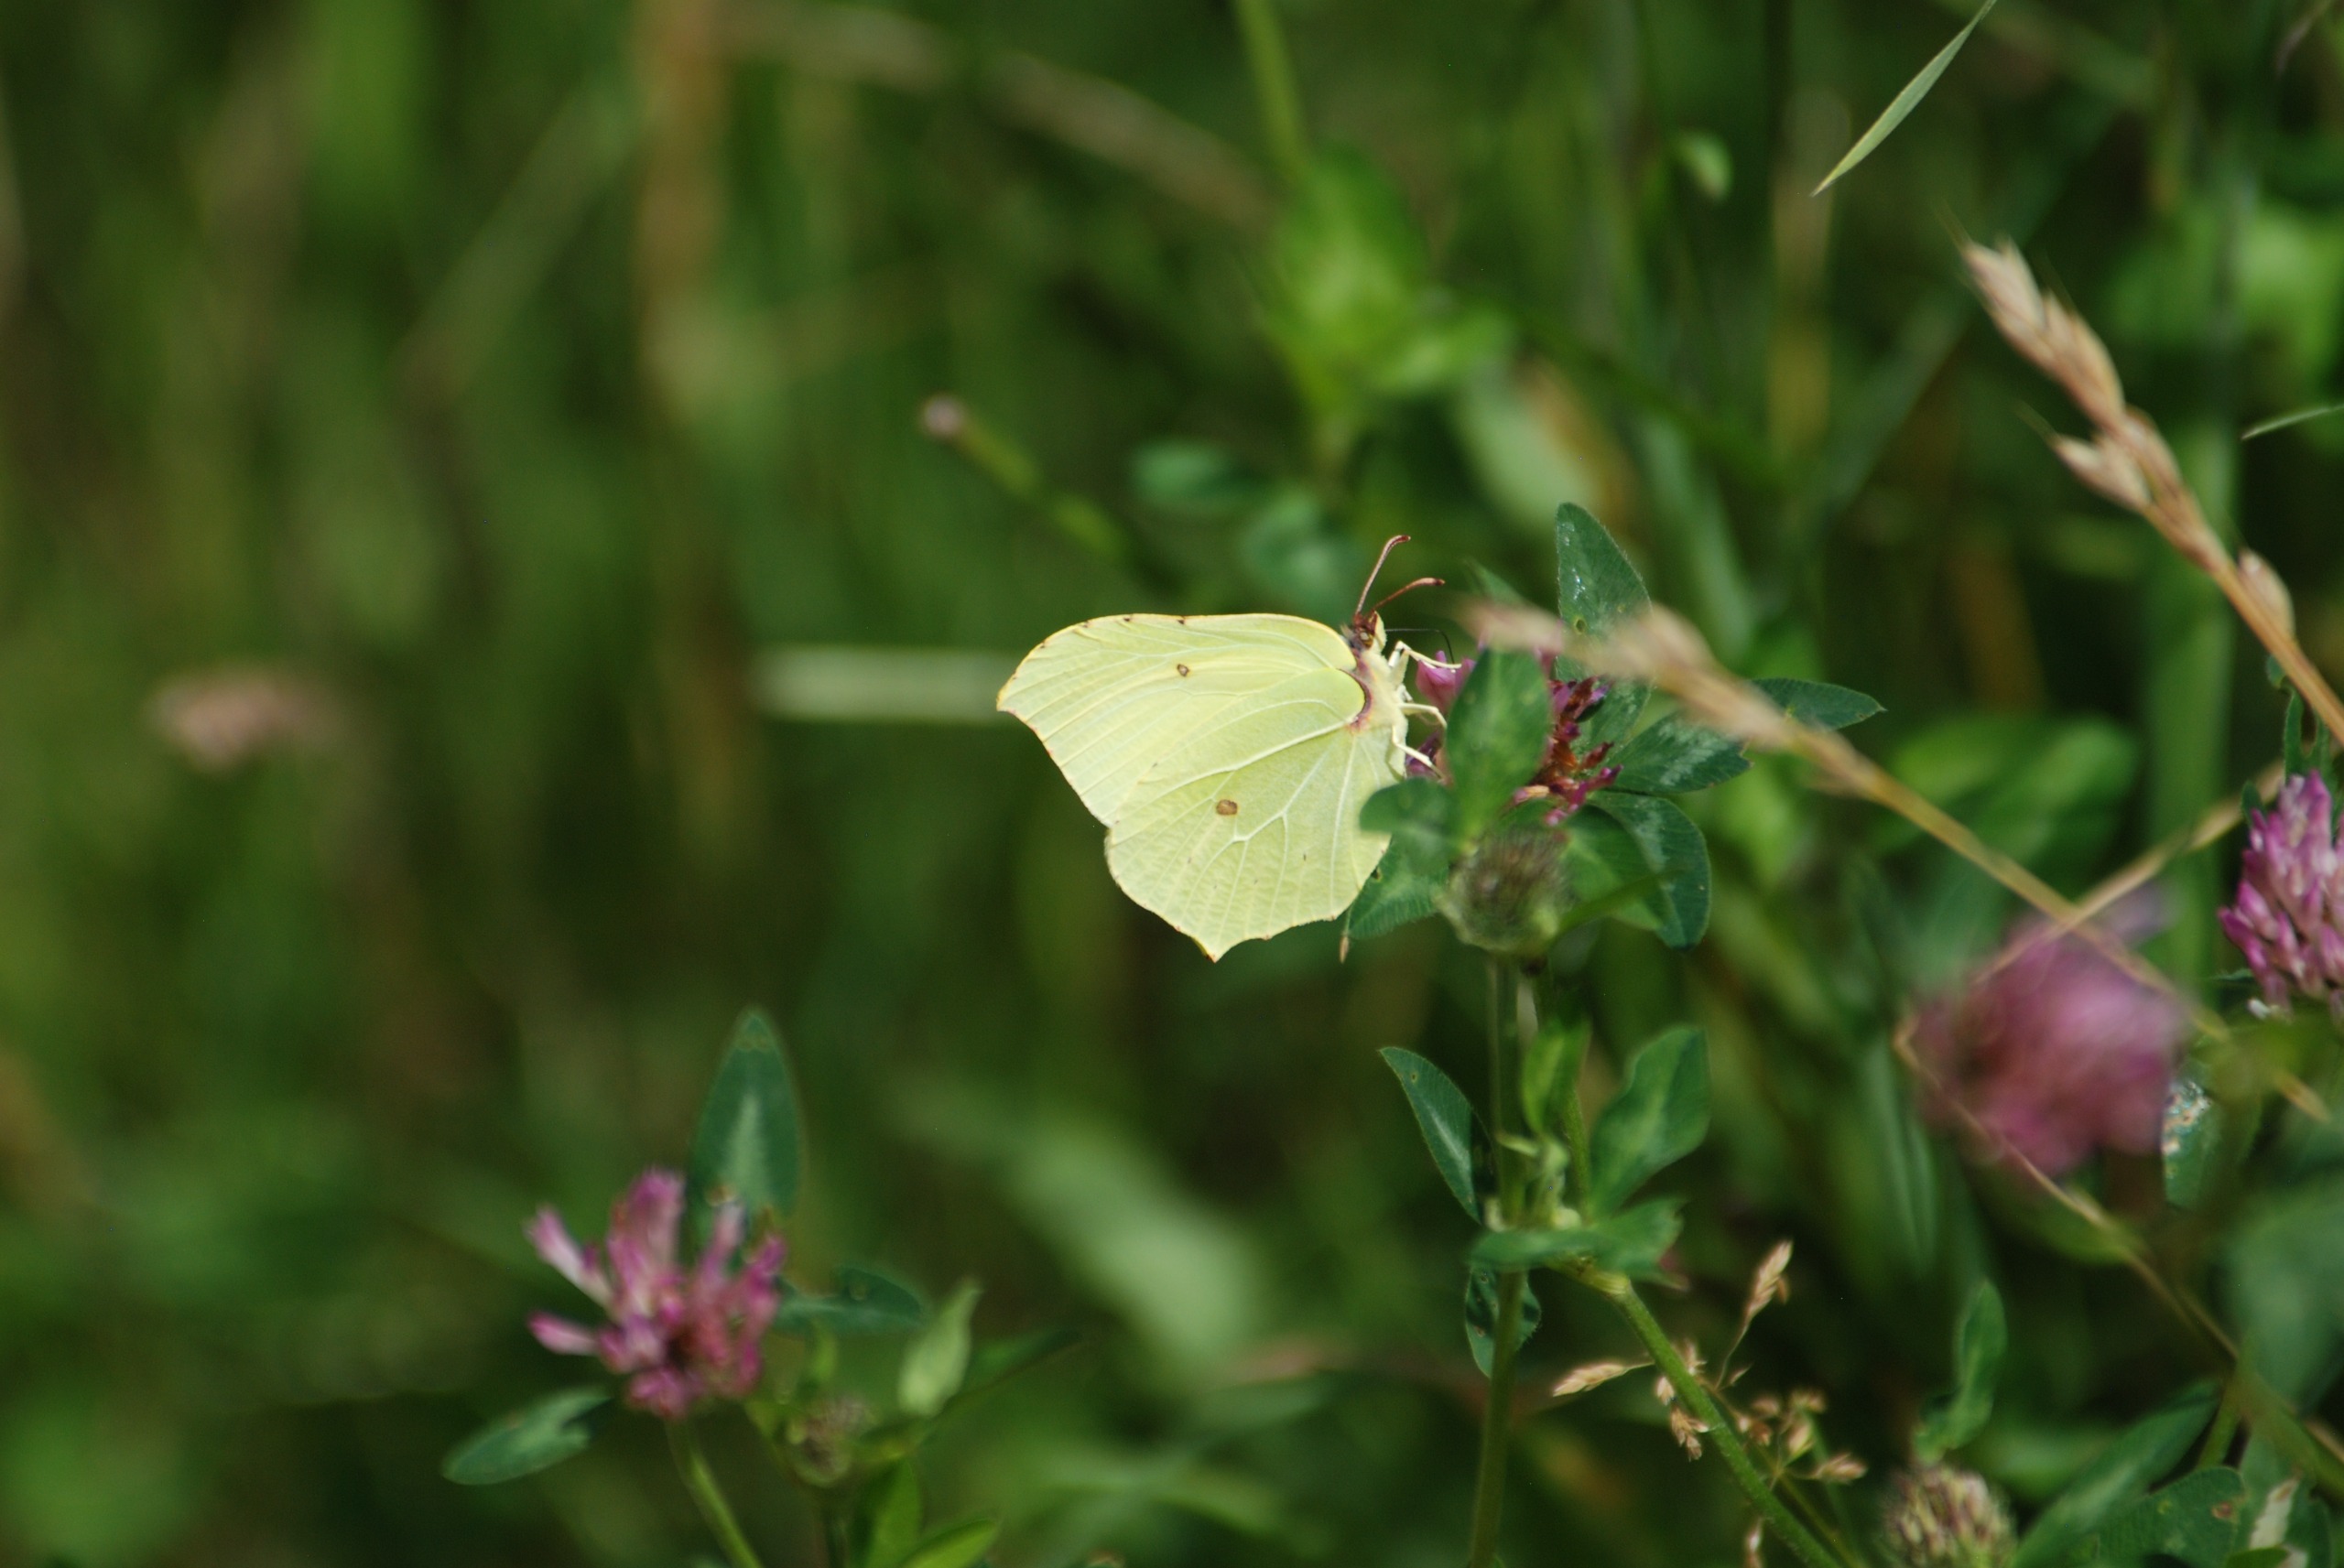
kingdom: Animalia
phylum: Arthropoda
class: Insecta
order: Lepidoptera
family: Pieridae
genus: Gonepteryx
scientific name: Gonepteryx rhamni
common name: Citronsommerfugl
